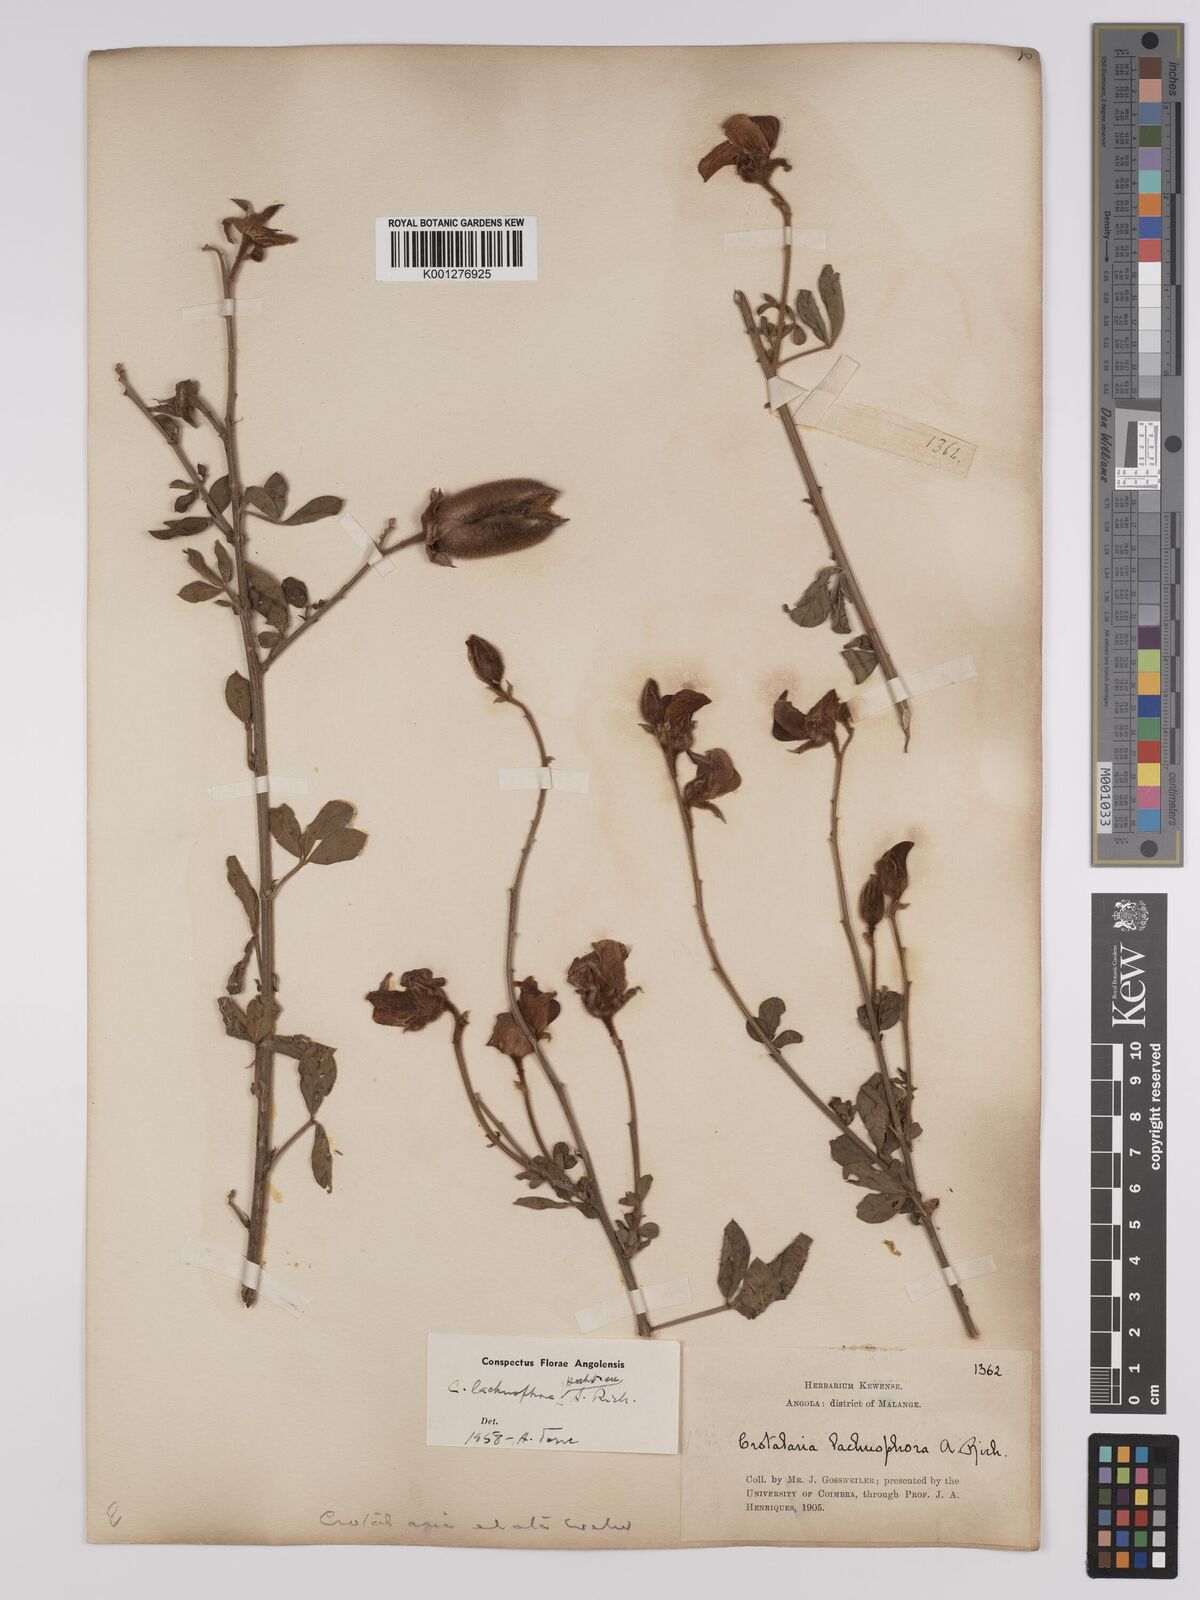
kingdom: Plantae
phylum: Tracheophyta
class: Magnoliopsida
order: Fabales
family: Fabaceae
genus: Crotalaria
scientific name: Crotalaria lachnophora
